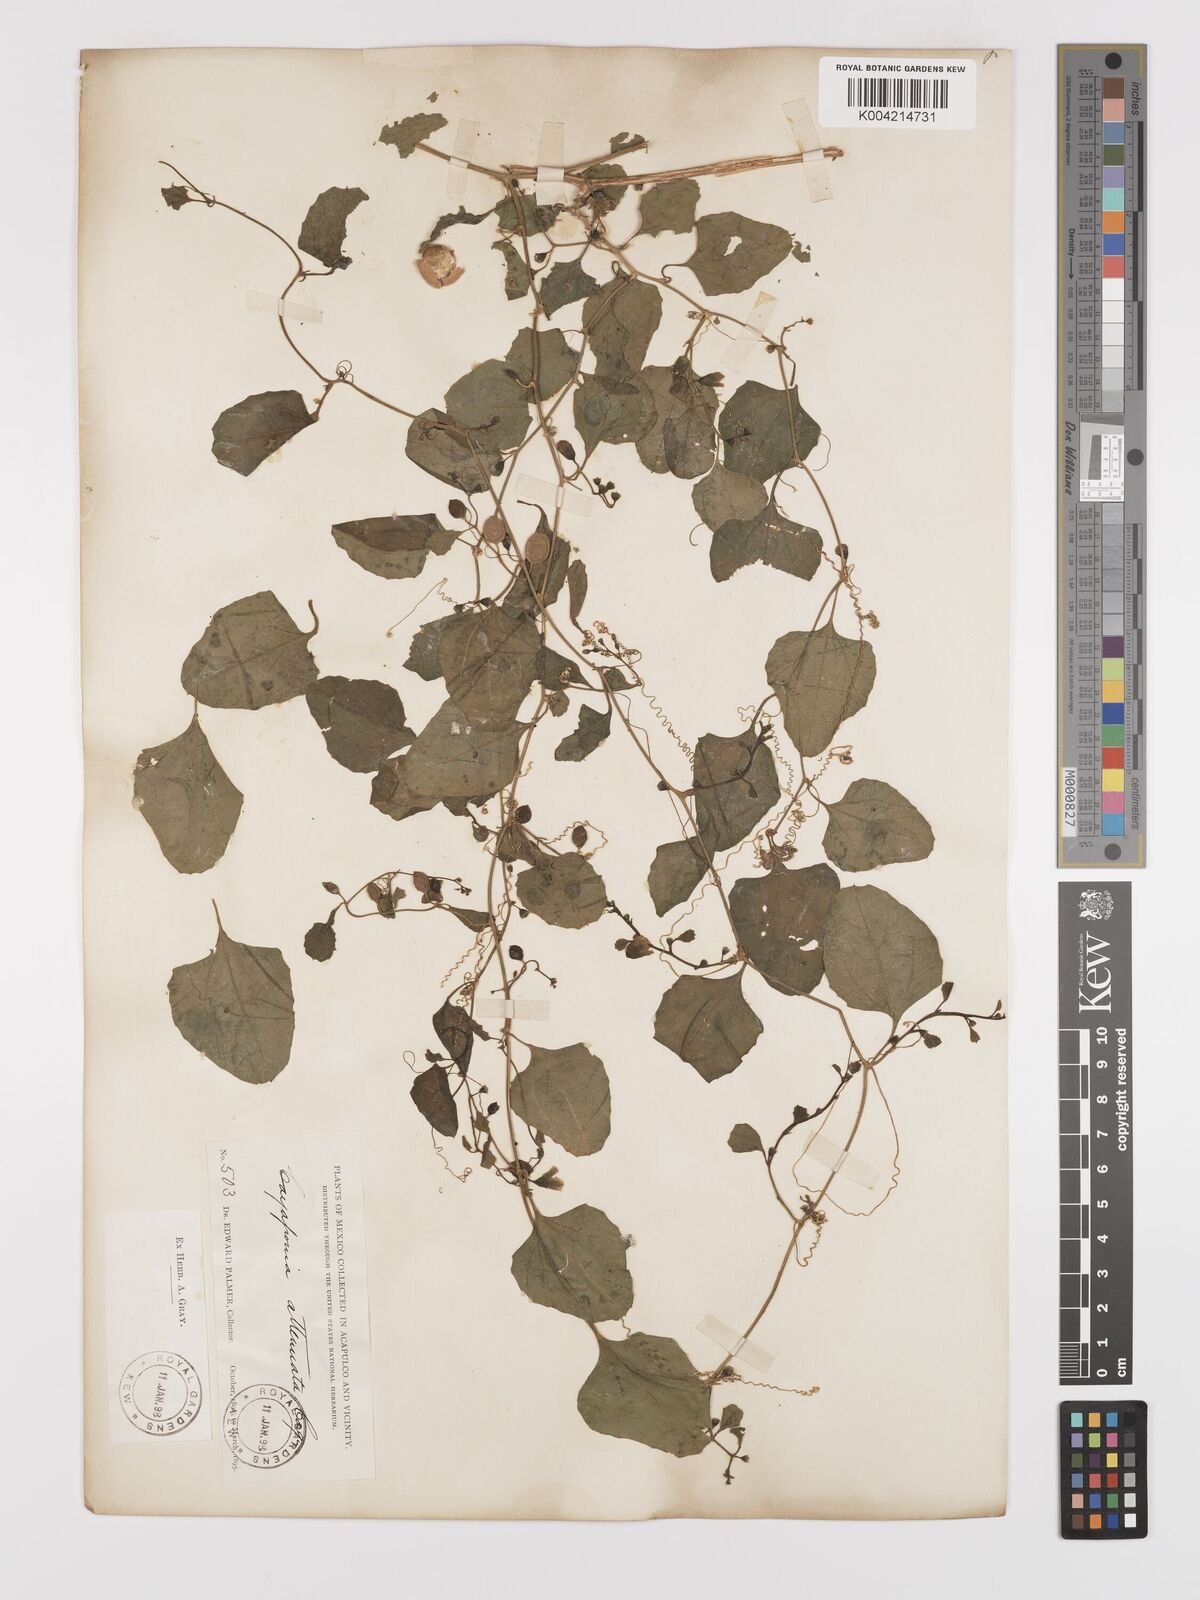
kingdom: Plantae
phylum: Tracheophyta
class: Magnoliopsida
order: Cucurbitales
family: Cucurbitaceae
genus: Cayaponia
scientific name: Cayaponia attenuata
